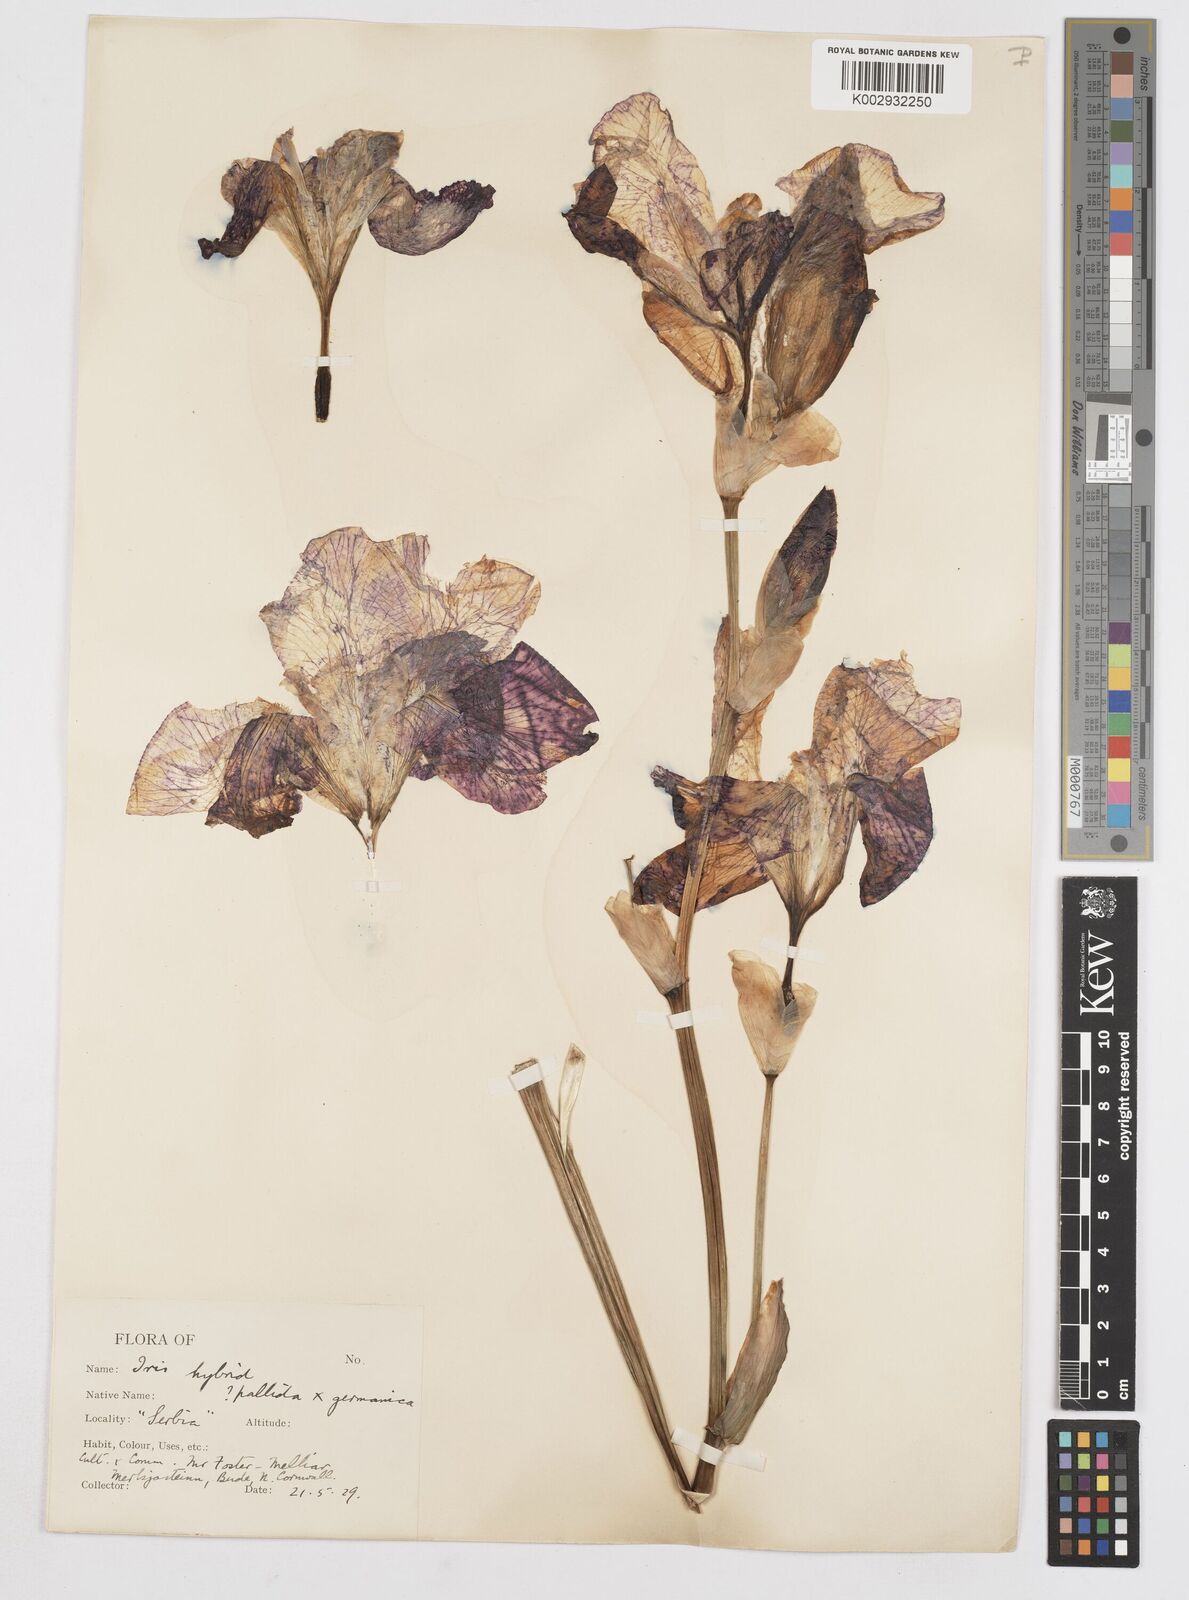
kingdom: Plantae
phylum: Tracheophyta
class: Liliopsida
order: Asparagales
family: Iridaceae
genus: Iris
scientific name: Iris
